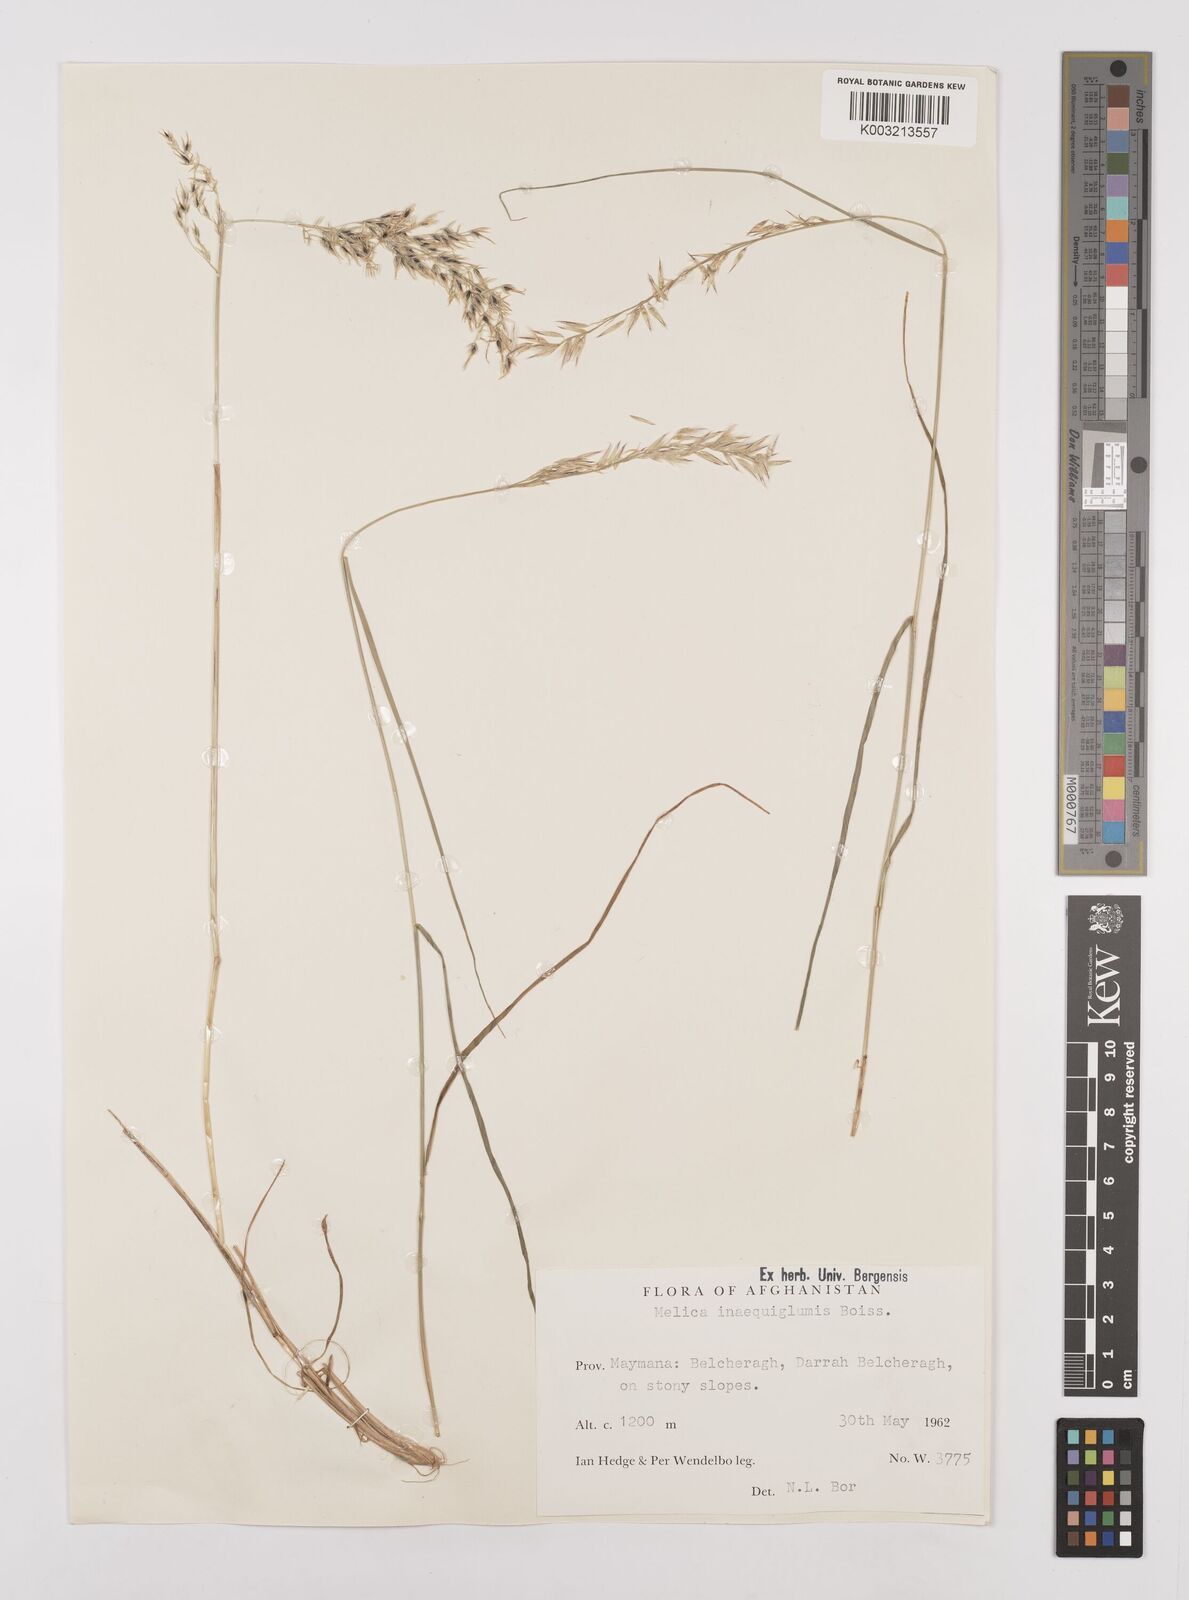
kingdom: Plantae
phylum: Tracheophyta
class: Liliopsida
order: Poales
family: Poaceae
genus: Melica
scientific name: Melica persica
